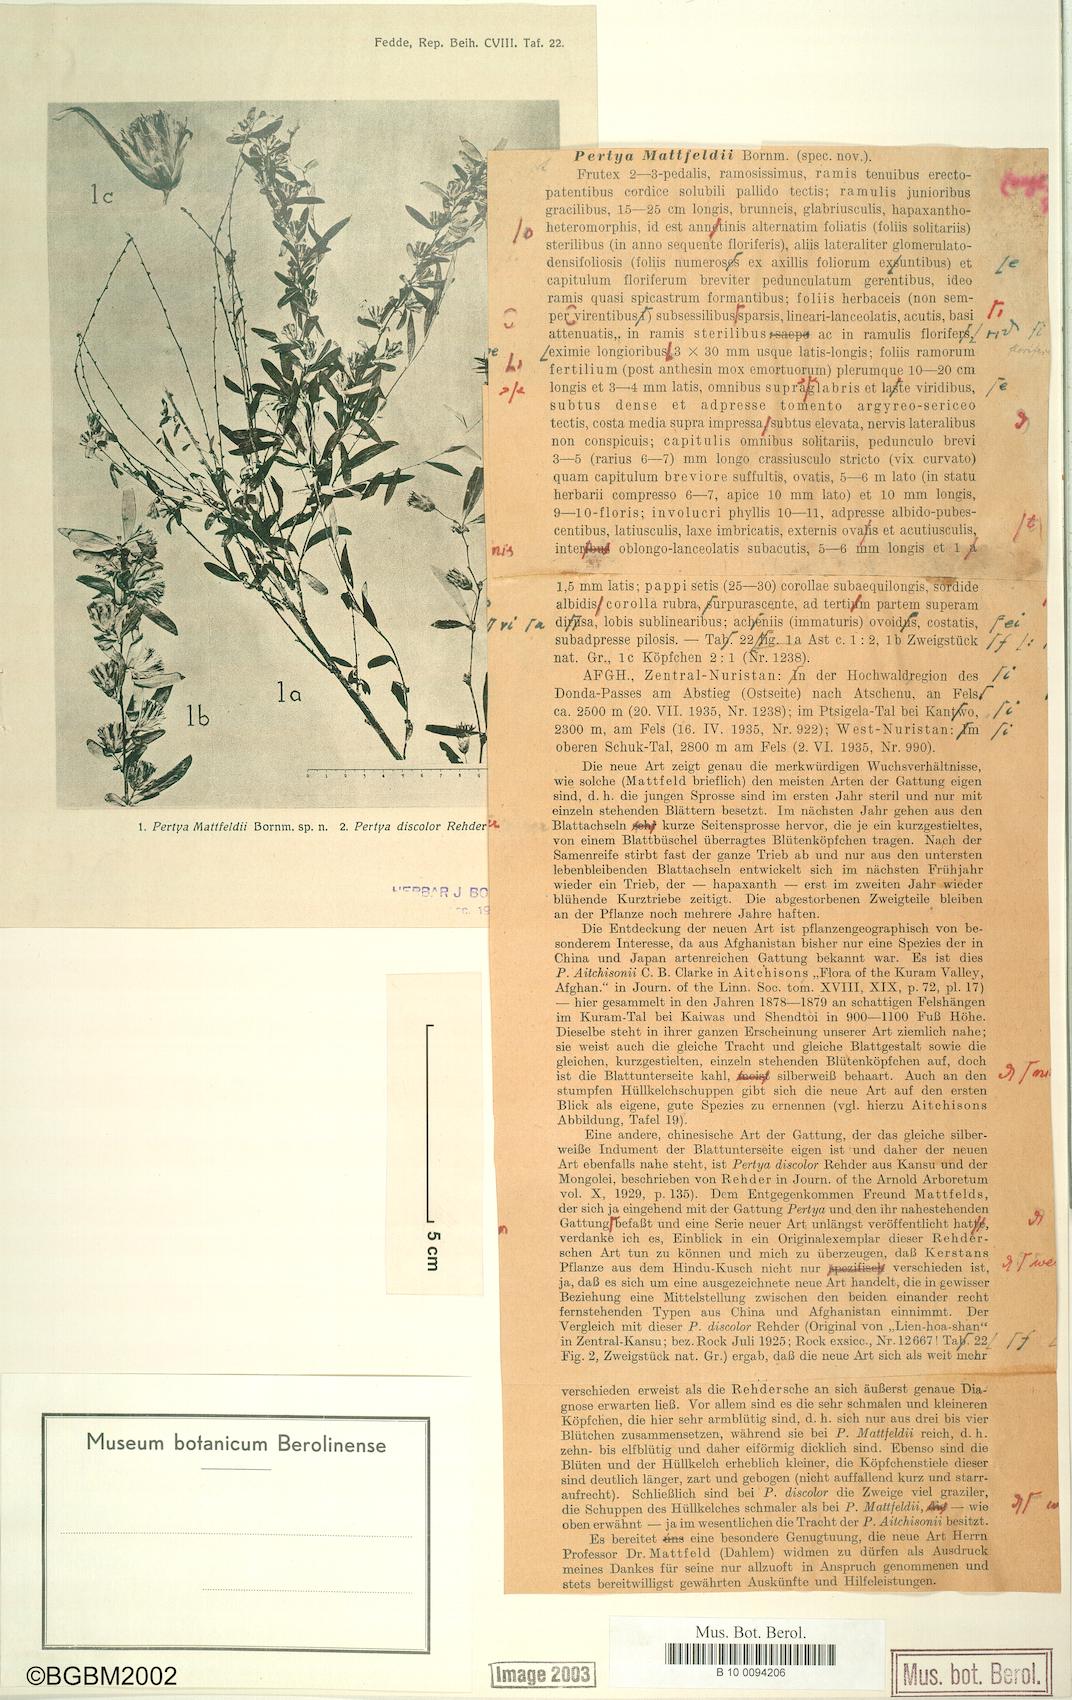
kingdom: Plantae
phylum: Tracheophyta
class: Magnoliopsida
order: Asterales
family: Asteraceae
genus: Pertya
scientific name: Pertya mattfeldii
